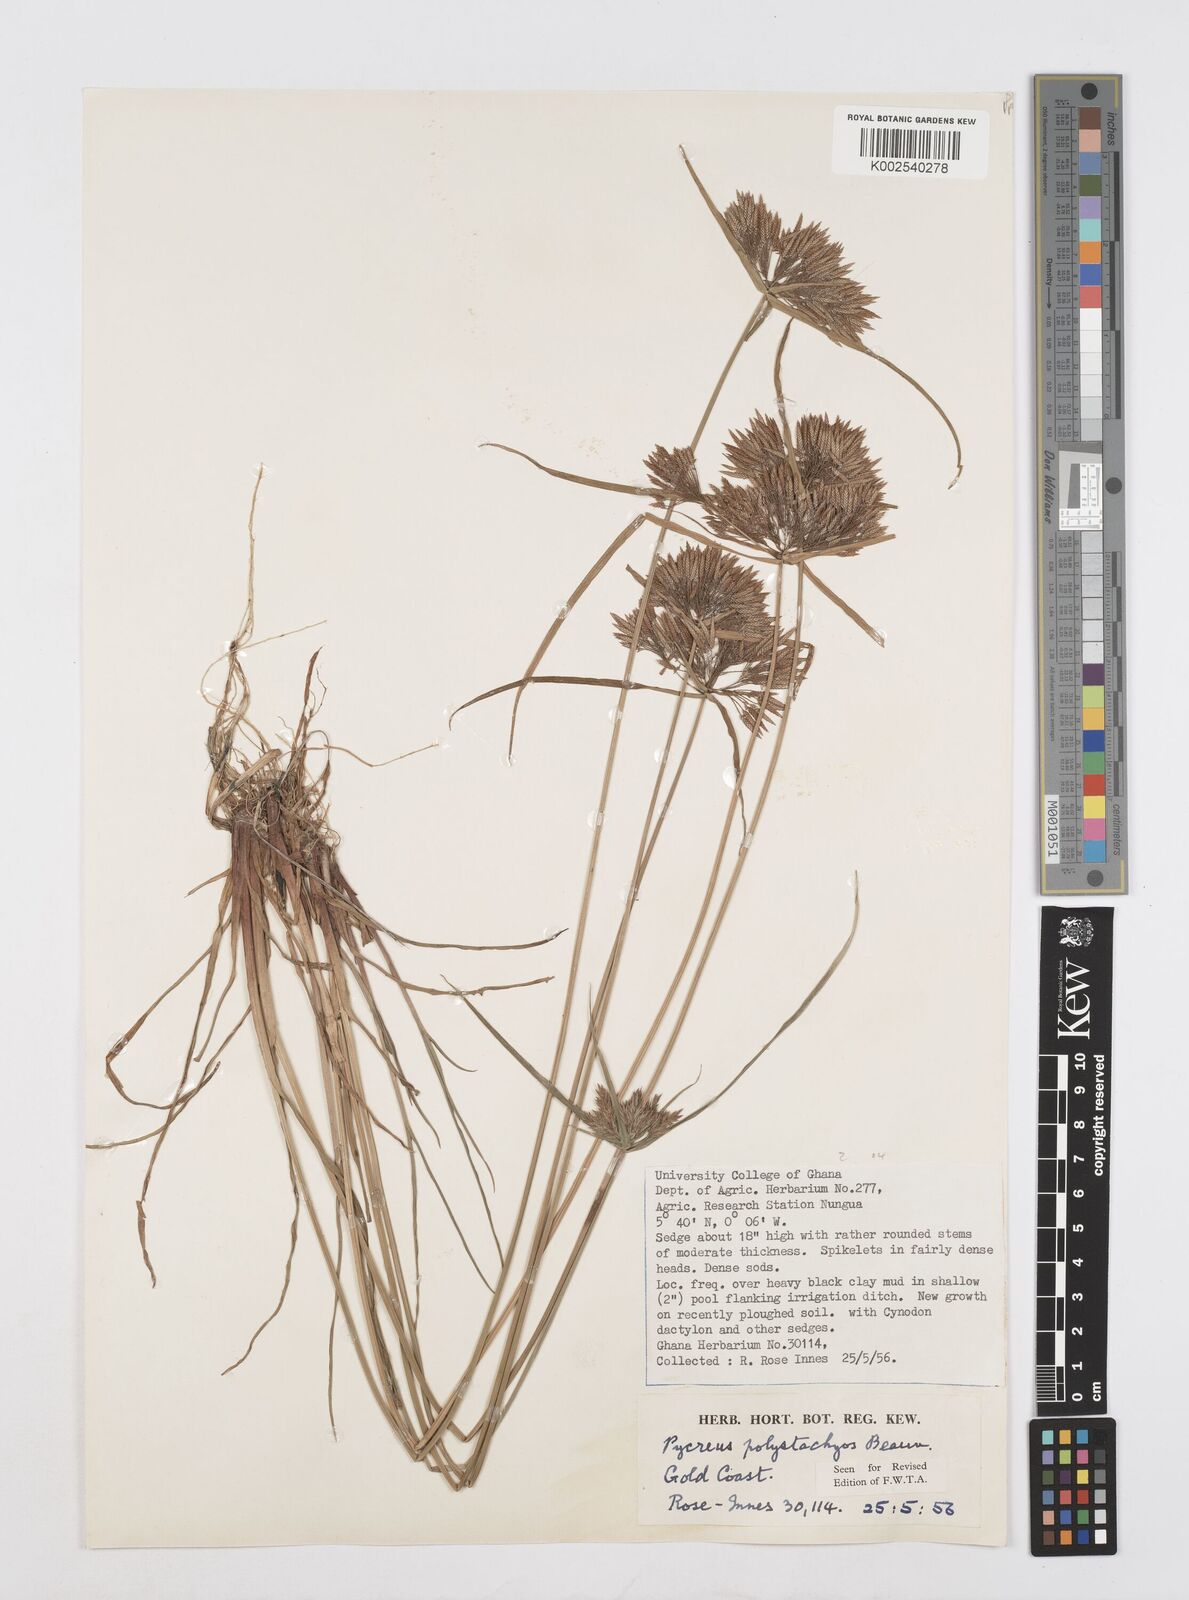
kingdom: Plantae
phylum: Tracheophyta
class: Liliopsida
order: Poales
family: Cyperaceae
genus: Cyperus
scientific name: Cyperus polystachyos
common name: Bunchy flat sedge
